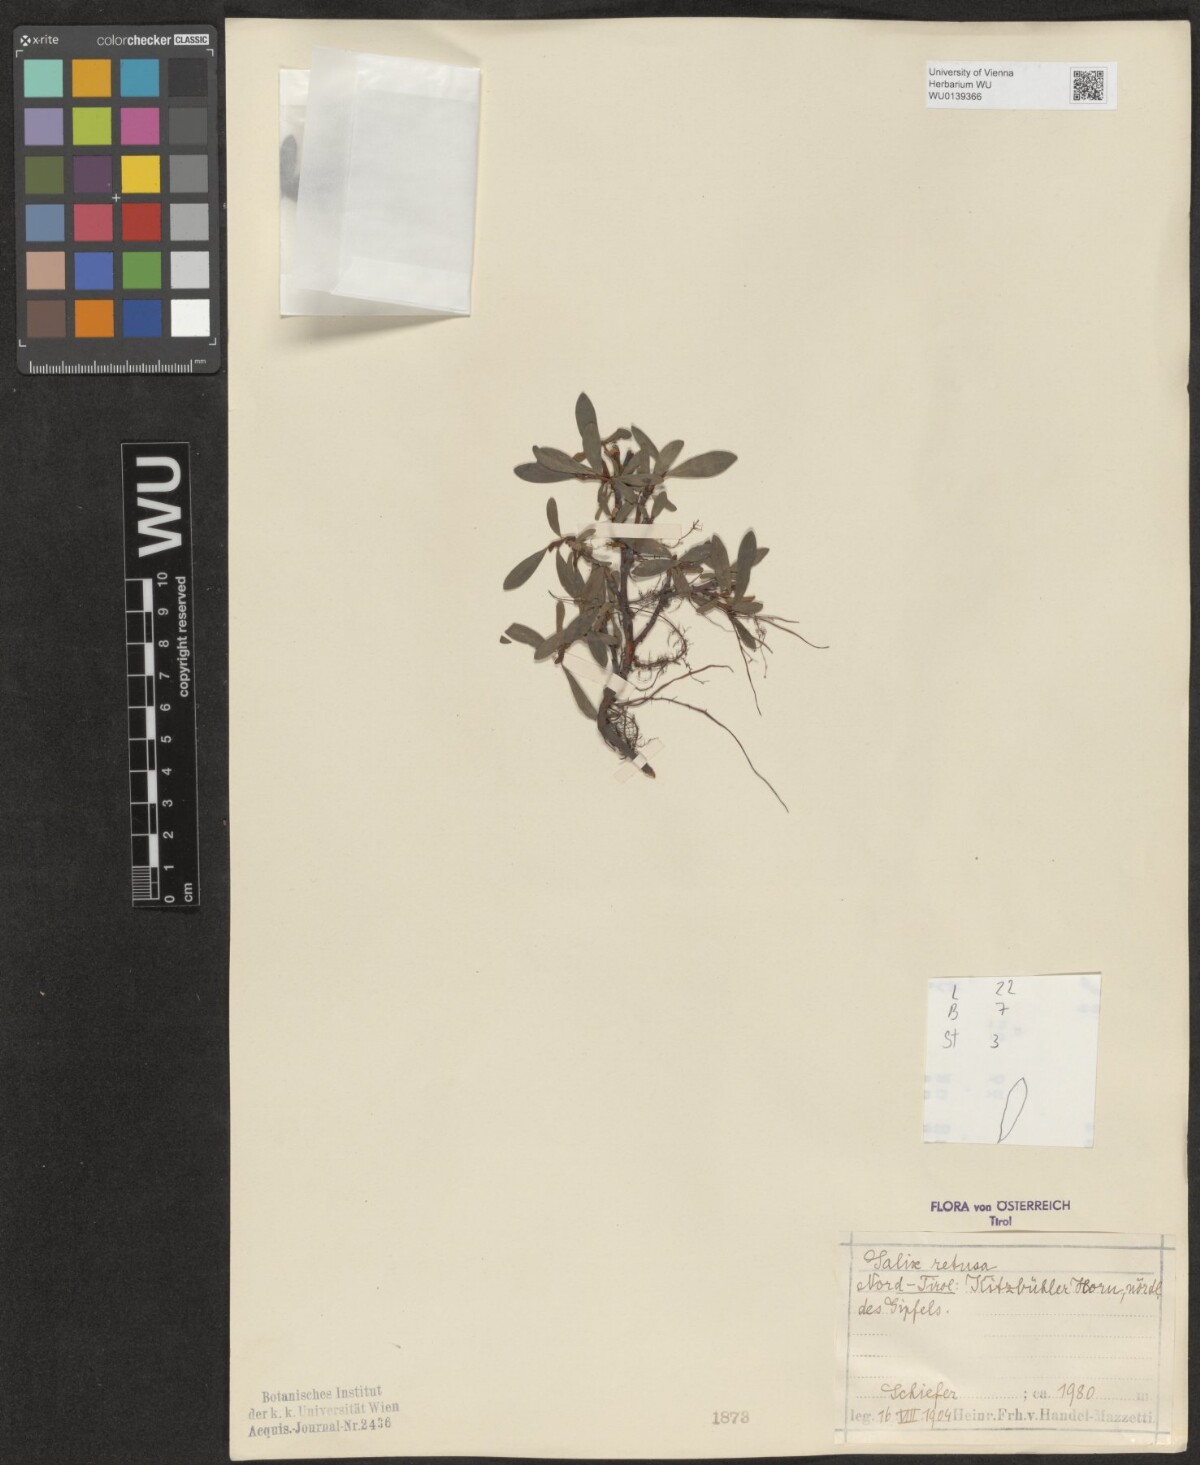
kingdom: Plantae
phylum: Tracheophyta
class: Magnoliopsida
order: Malpighiales
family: Salicaceae
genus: Salix
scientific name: Salix retusa
